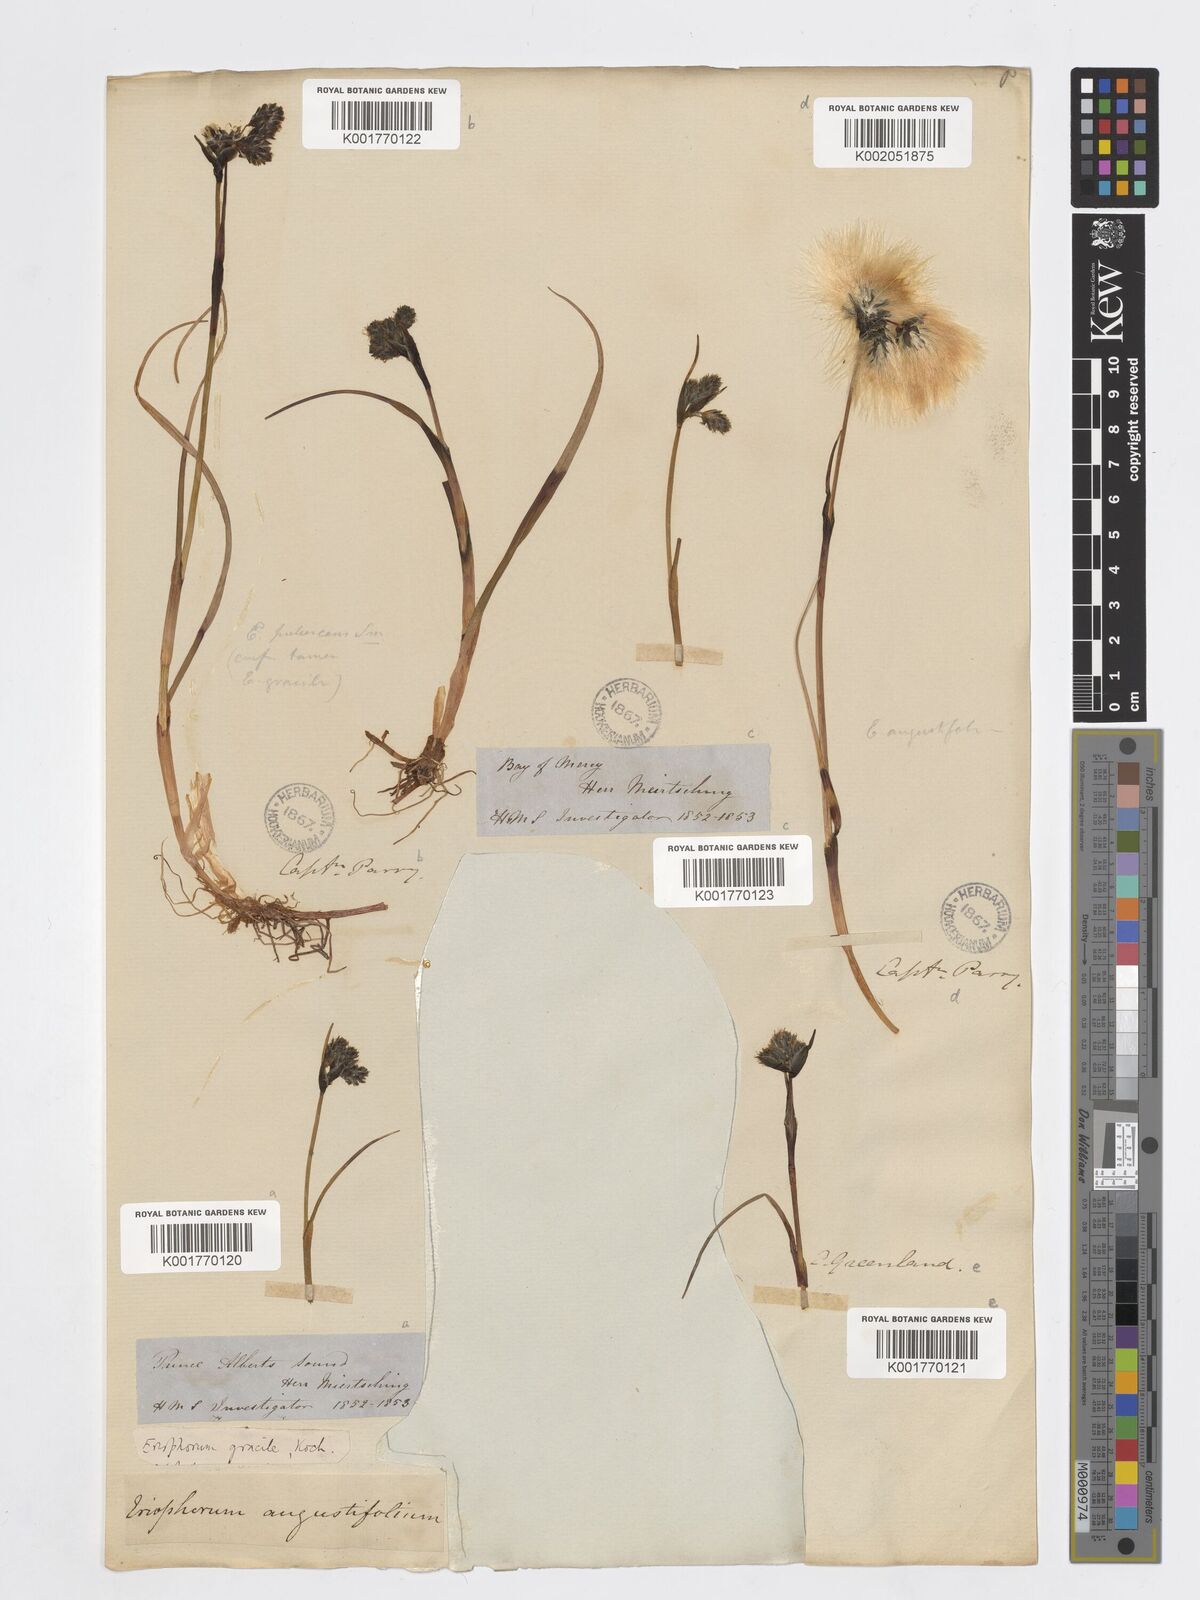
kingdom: Plantae
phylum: Tracheophyta
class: Liliopsida
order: Poales
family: Cyperaceae
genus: Eriophorum
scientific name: Eriophorum gracile
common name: Slender cottongrass
